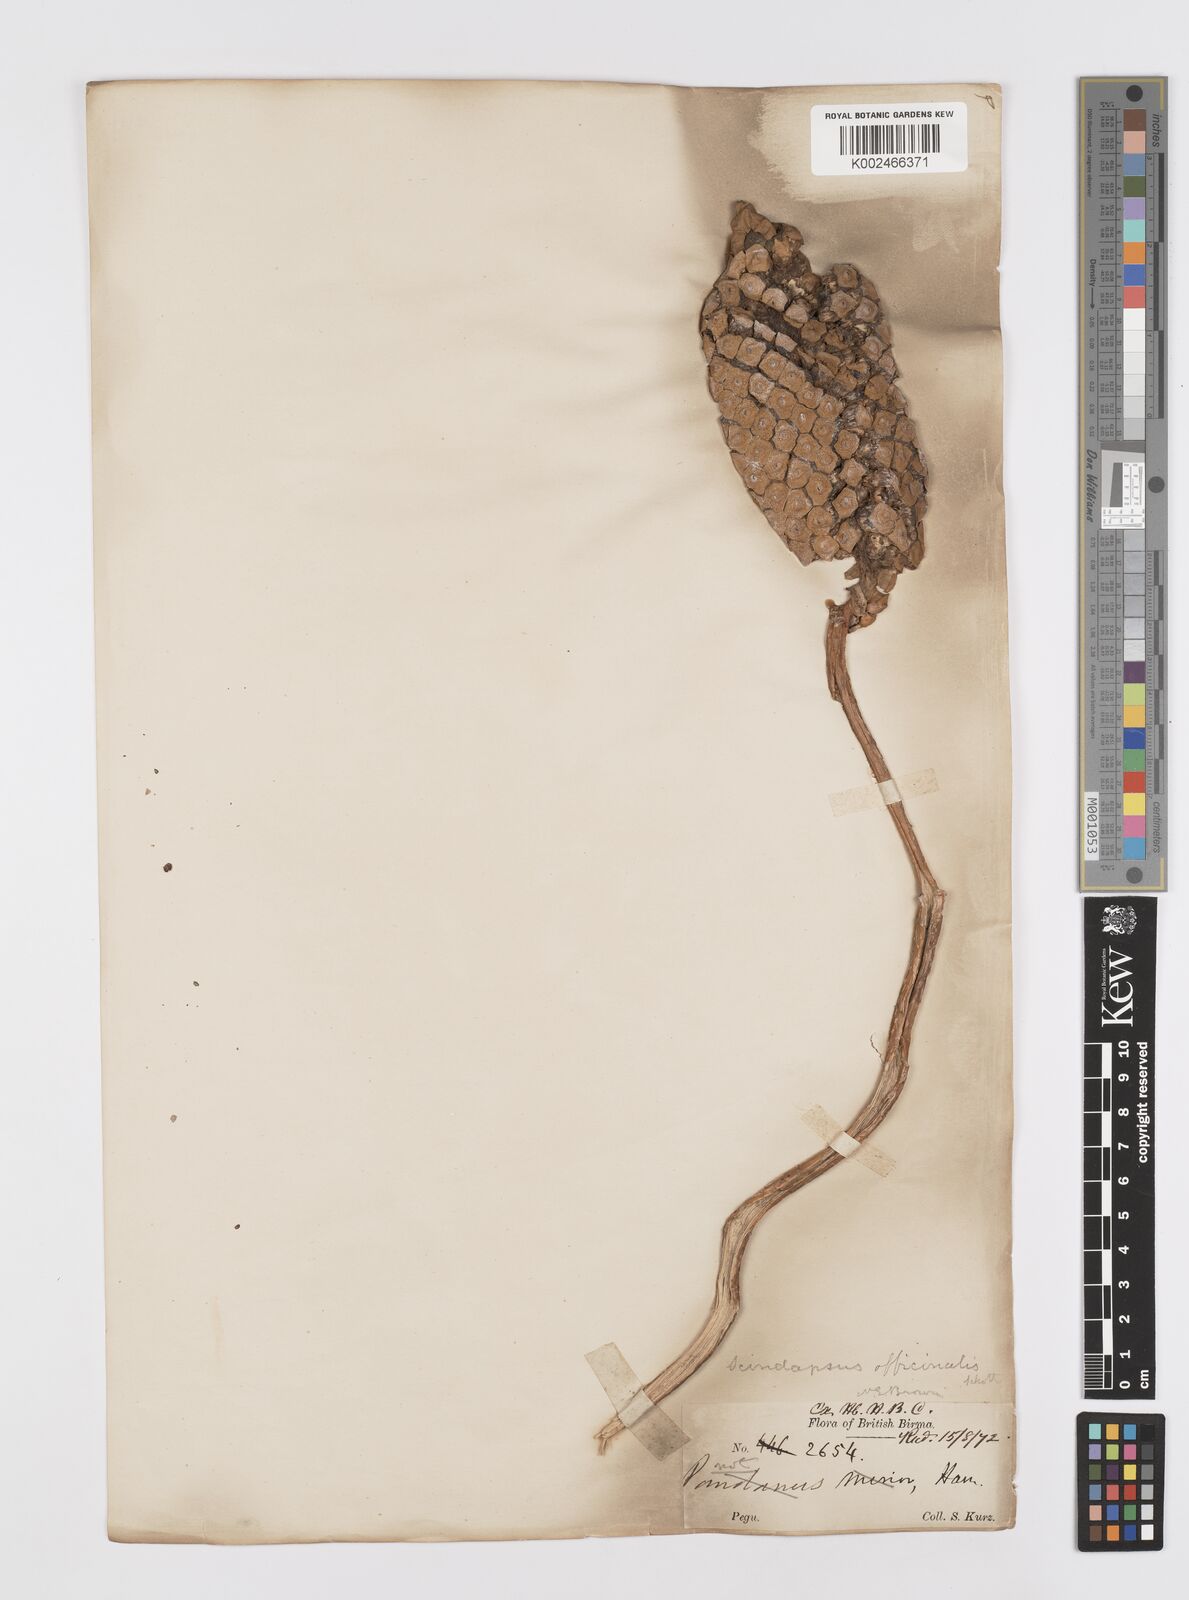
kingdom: Plantae
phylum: Tracheophyta
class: Liliopsida
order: Alismatales
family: Araceae
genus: Scindapsus
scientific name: Scindapsus officinalis
